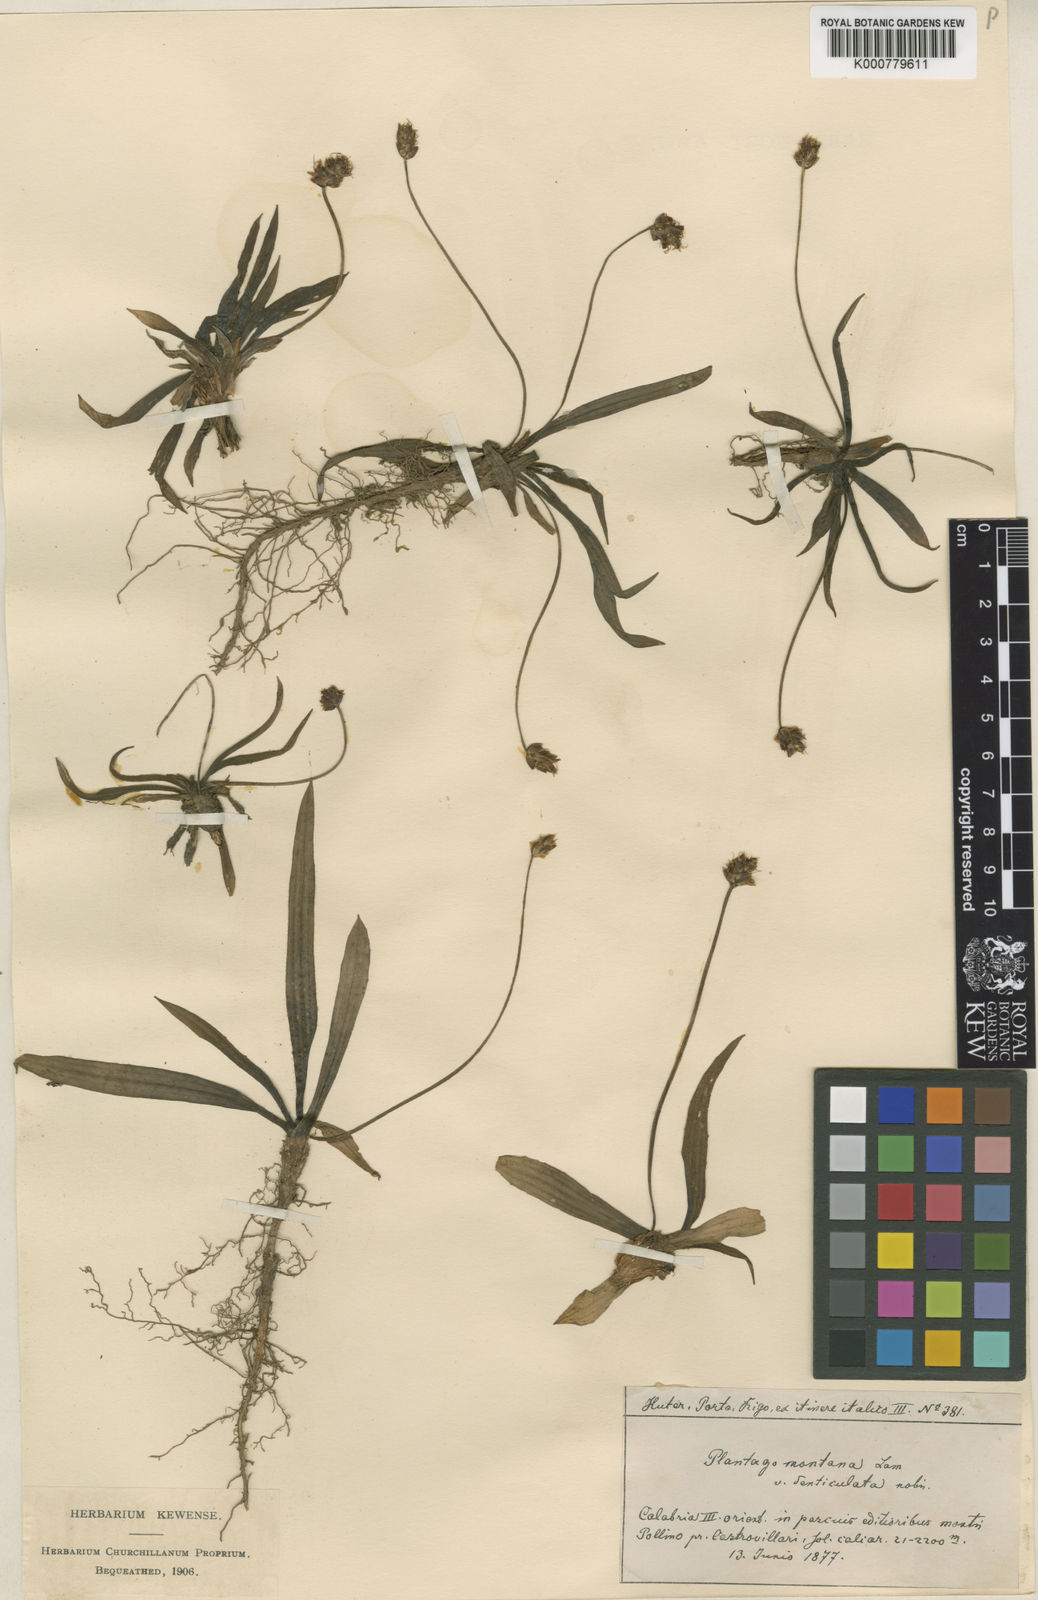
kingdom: Plantae
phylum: Tracheophyta
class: Magnoliopsida
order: Lamiales
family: Plantaginaceae
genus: Plantago
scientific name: Plantago atrata
